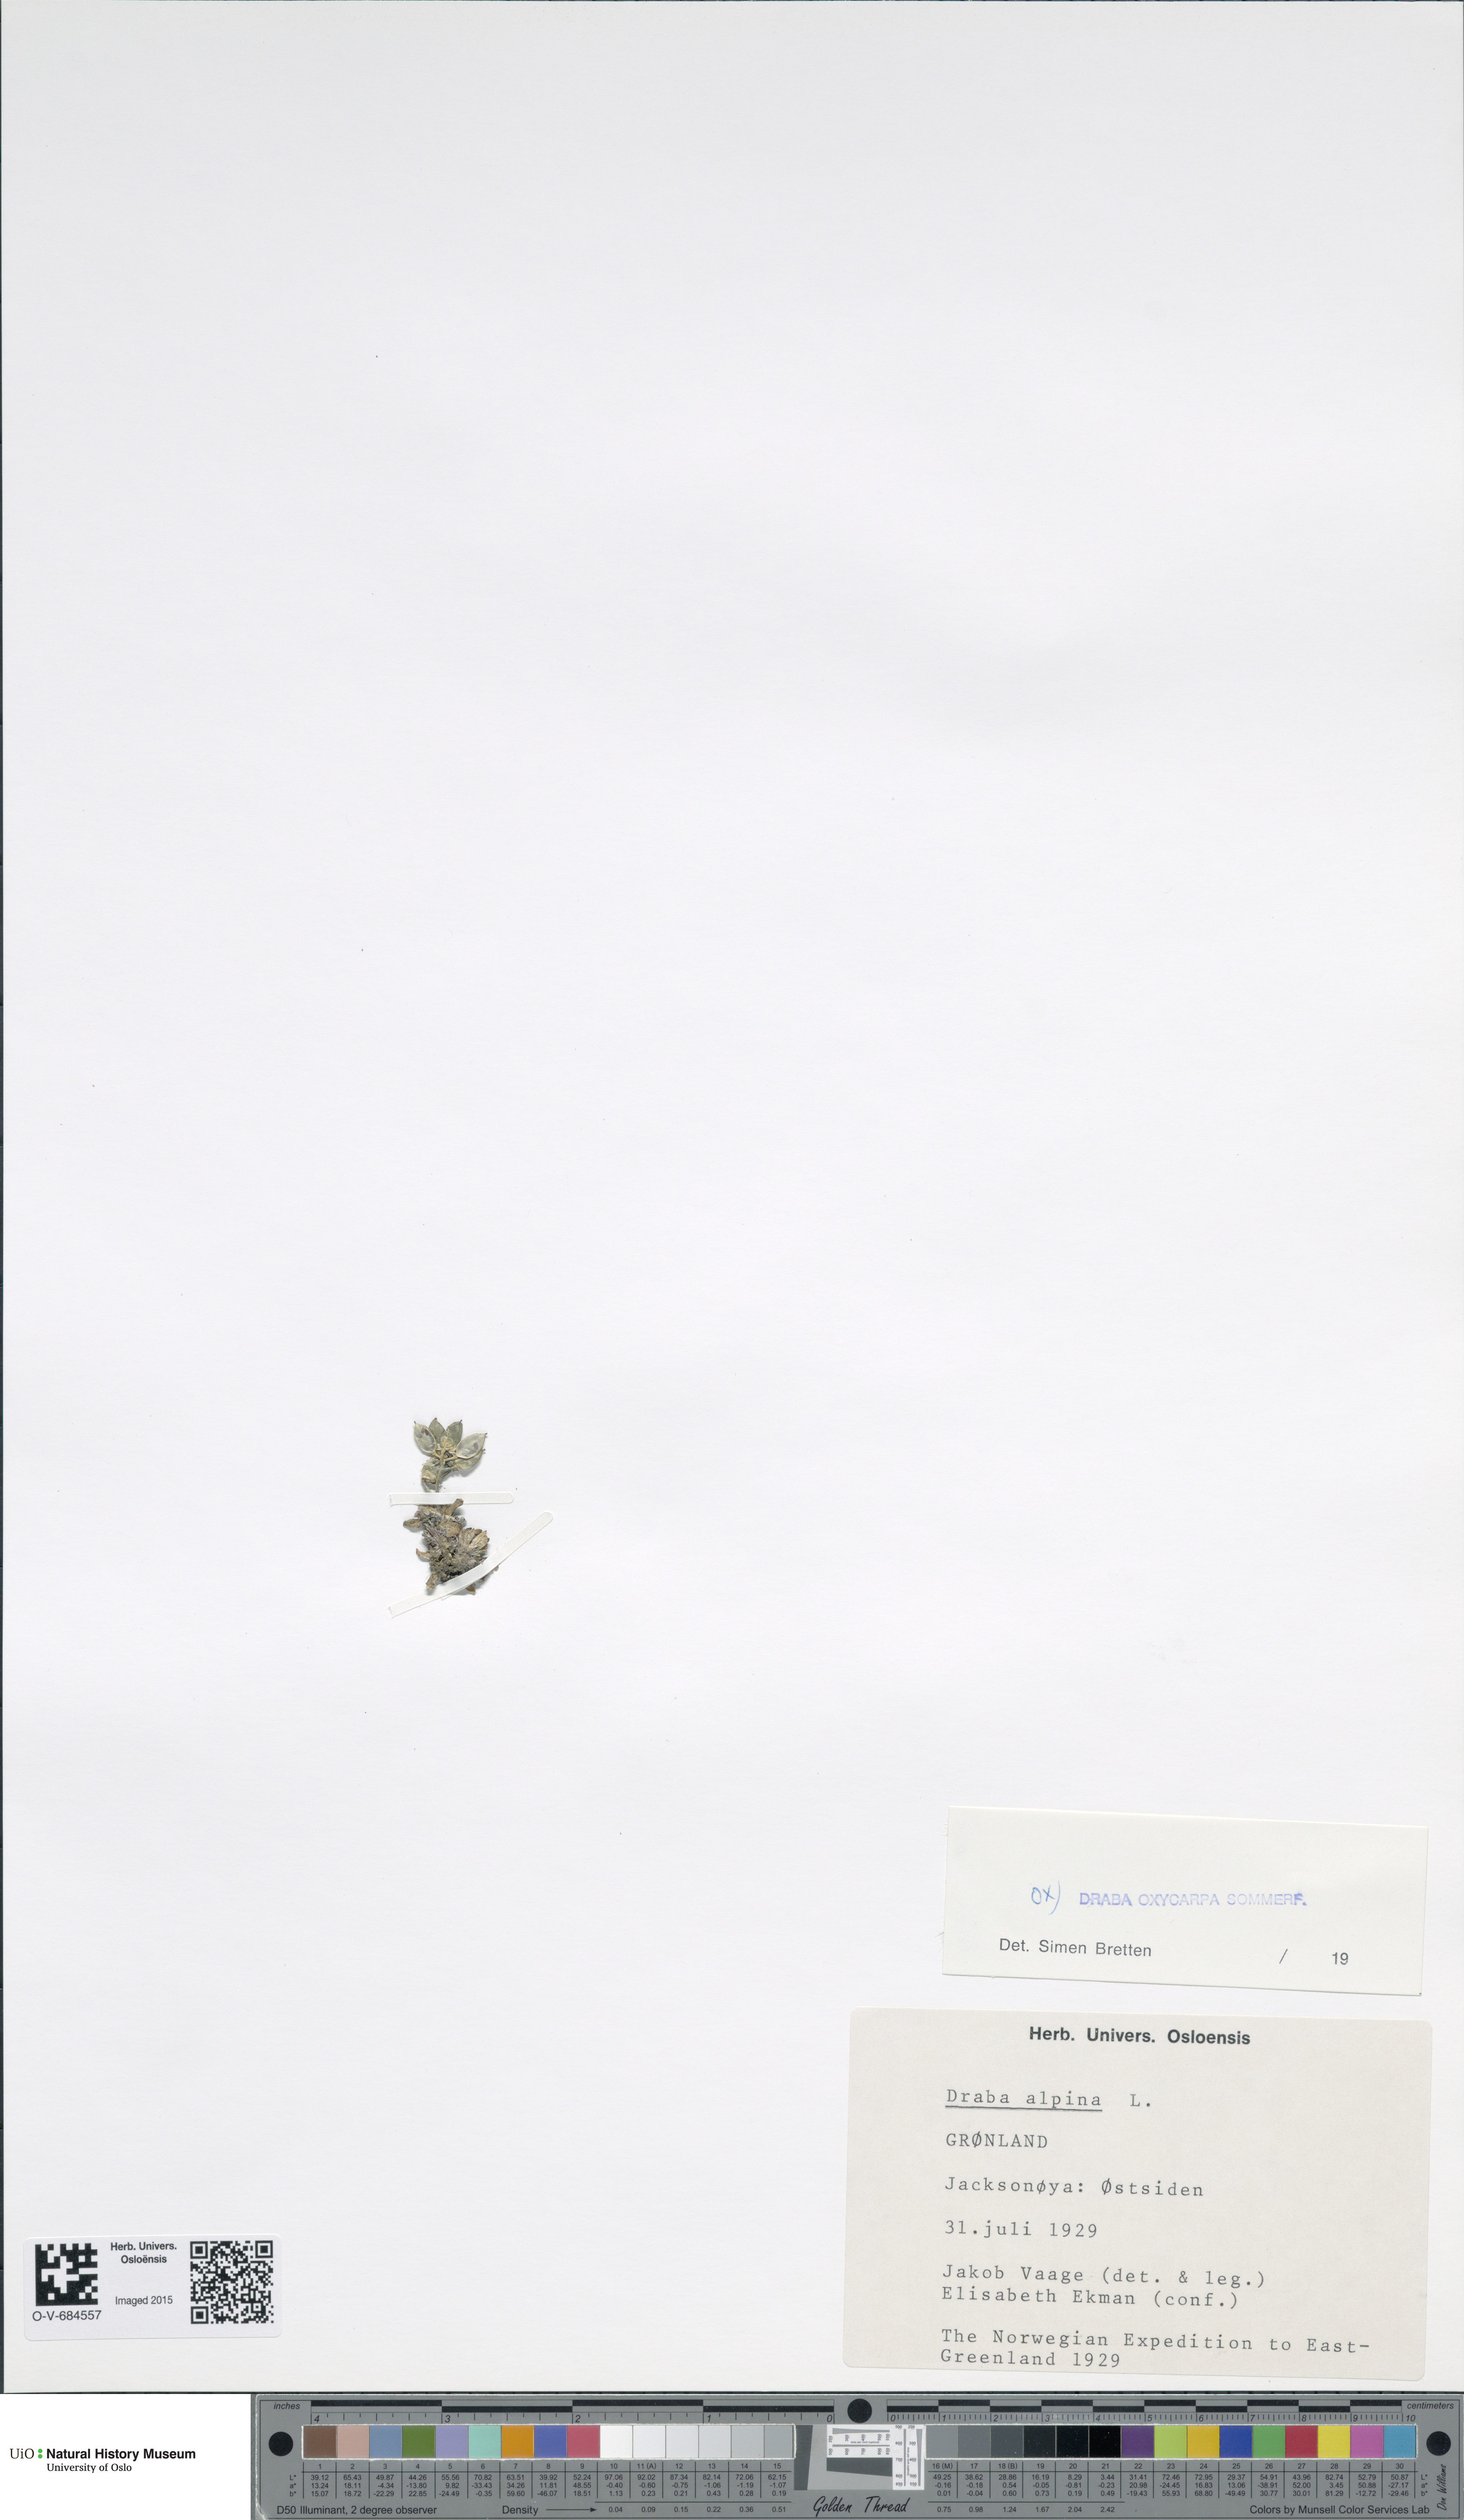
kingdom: Plantae
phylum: Tracheophyta
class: Magnoliopsida
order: Brassicales
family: Brassicaceae
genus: Draba
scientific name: Draba oxycarpa
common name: Sharp-fruited whitlow-grass
